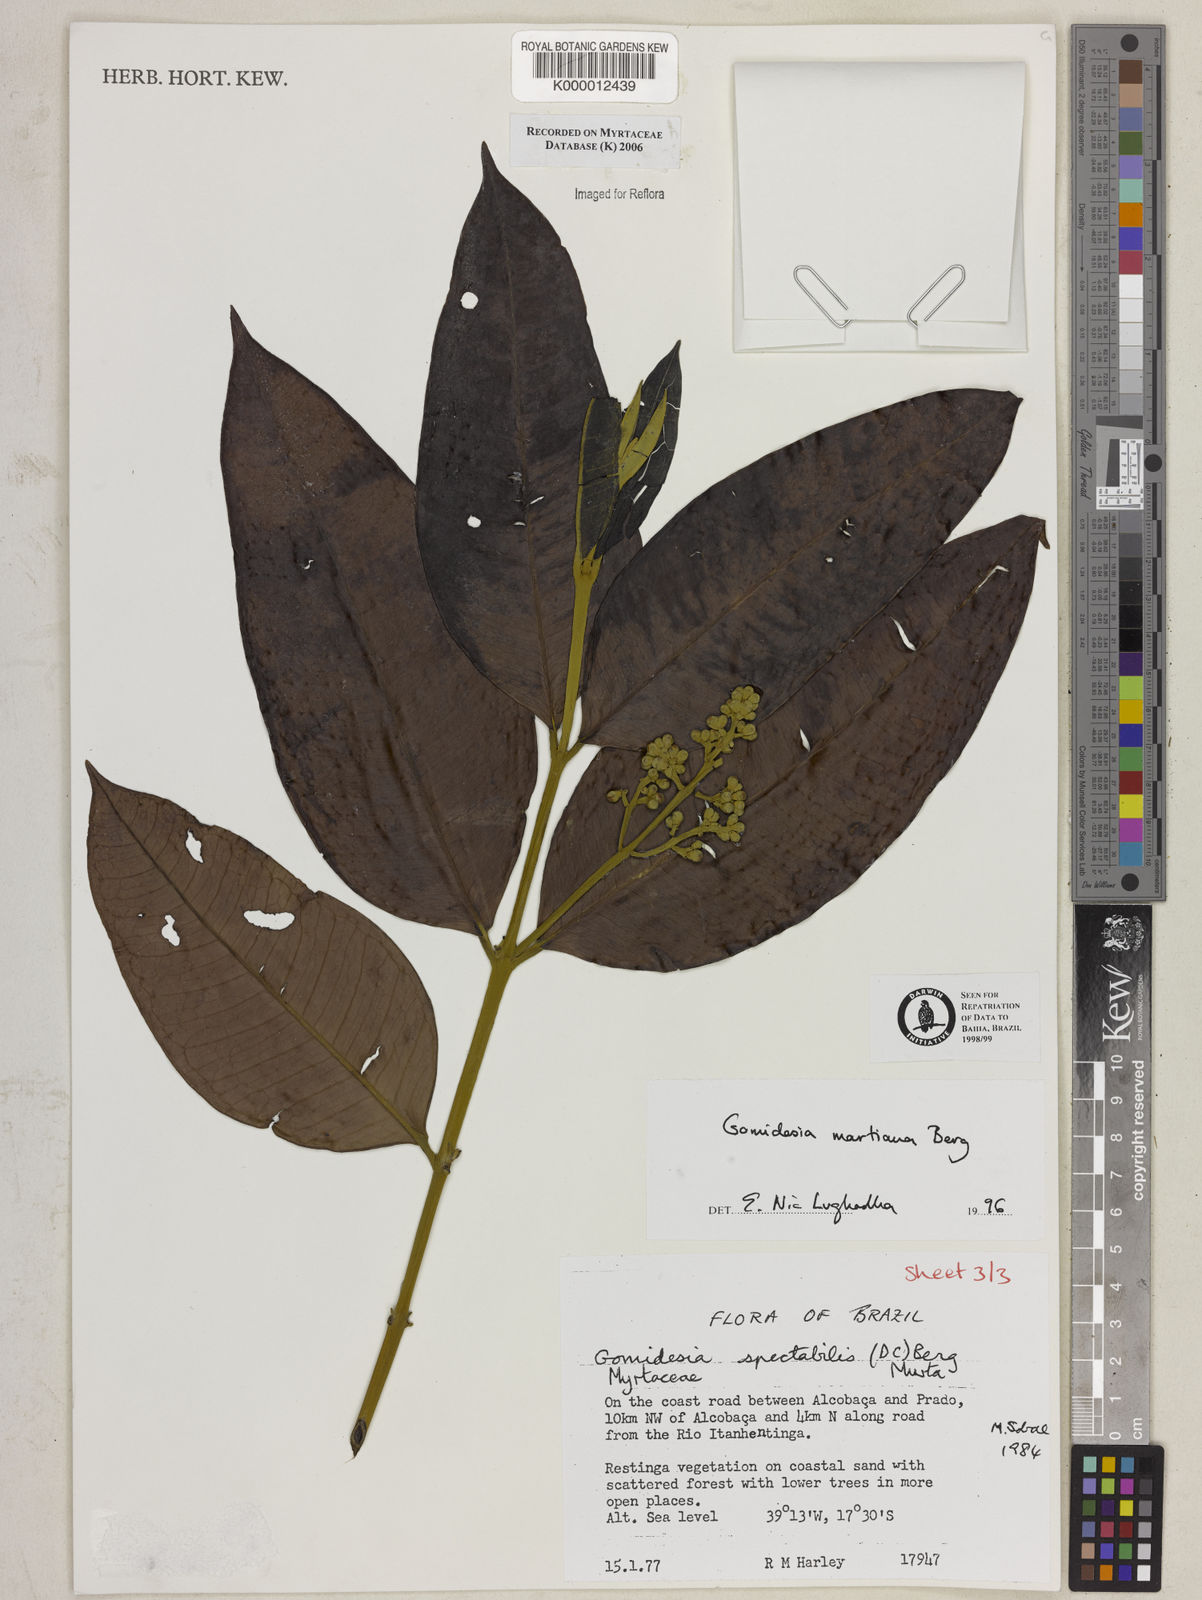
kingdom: Plantae
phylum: Tracheophyta
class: Magnoliopsida
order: Myrtales
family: Myrtaceae
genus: Myrcia
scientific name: Myrcia vittoriana
